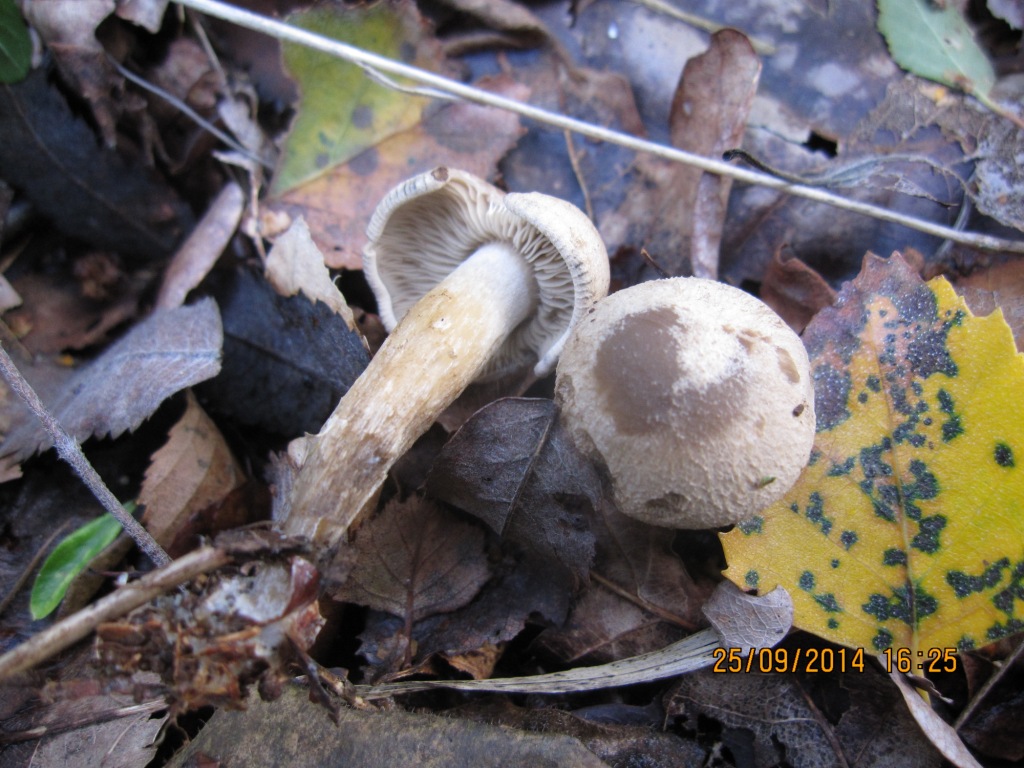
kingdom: Fungi
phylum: Basidiomycota
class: Agaricomycetes
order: Agaricales
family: Lyophyllaceae
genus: Calocybe
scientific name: Calocybe gangraenosa
